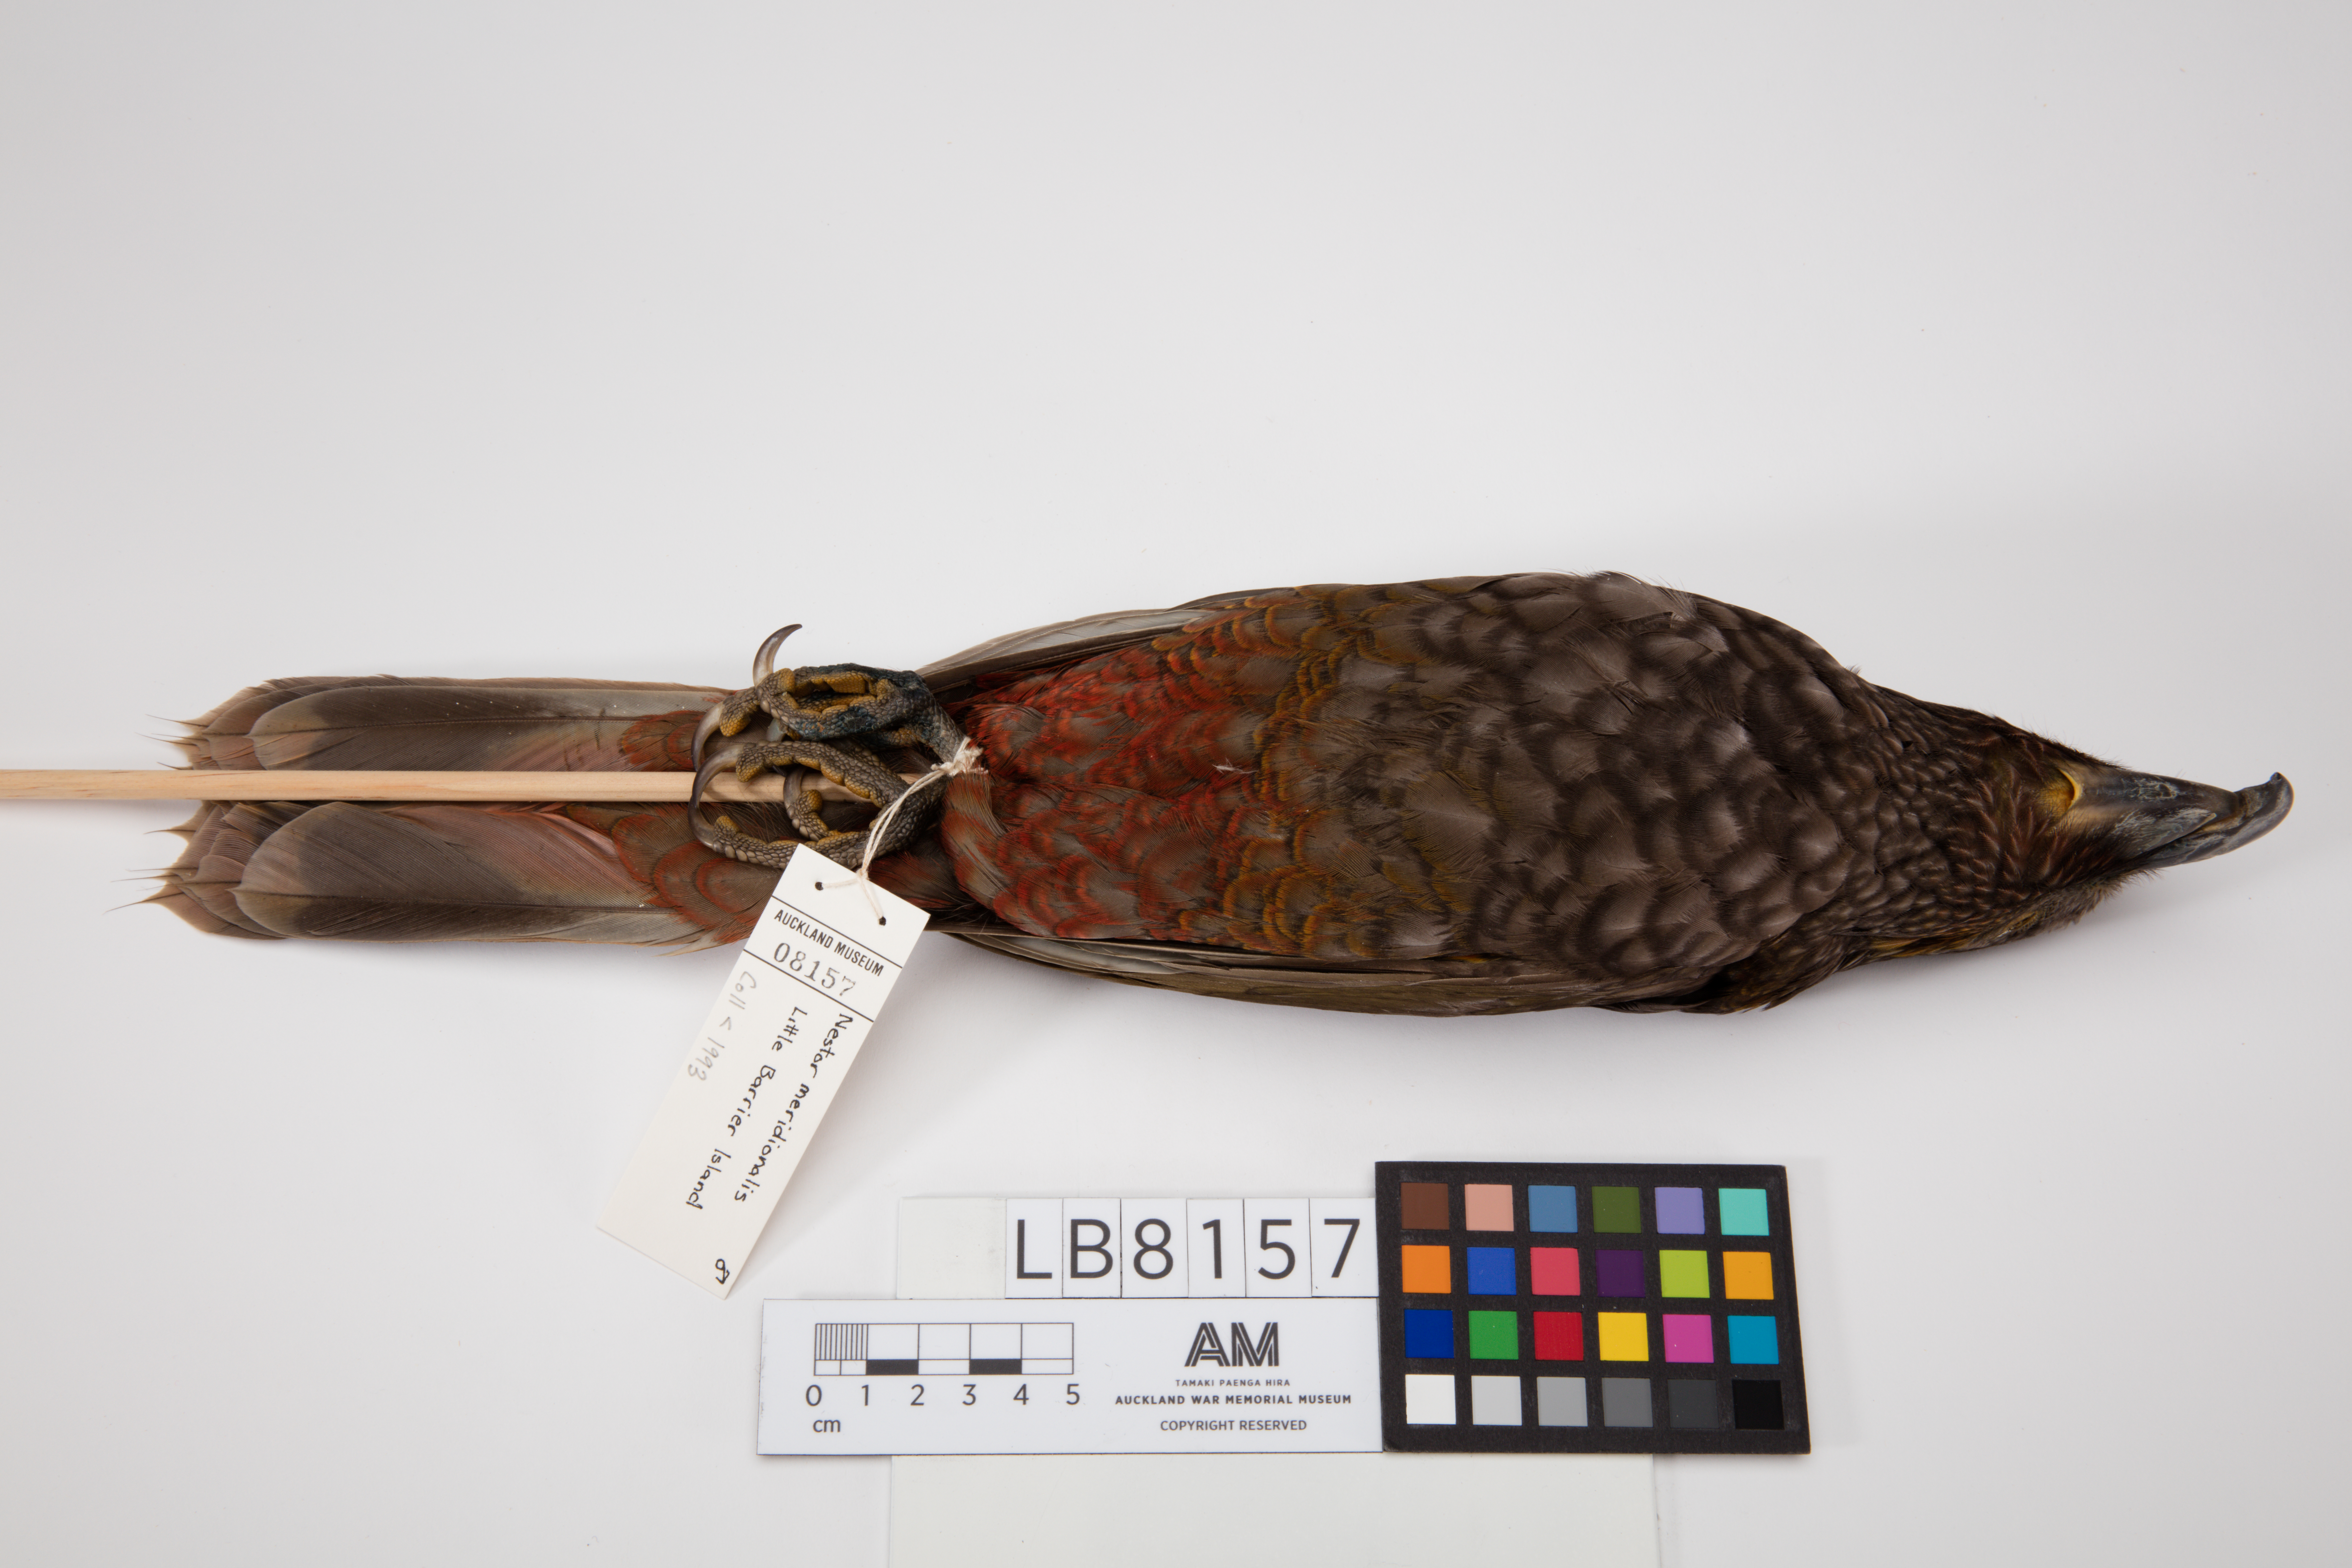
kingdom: Animalia
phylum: Chordata
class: Aves
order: Psittaciformes
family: Psittacidae
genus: Nestor
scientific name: Nestor meridionalis
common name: New zealand kaka
